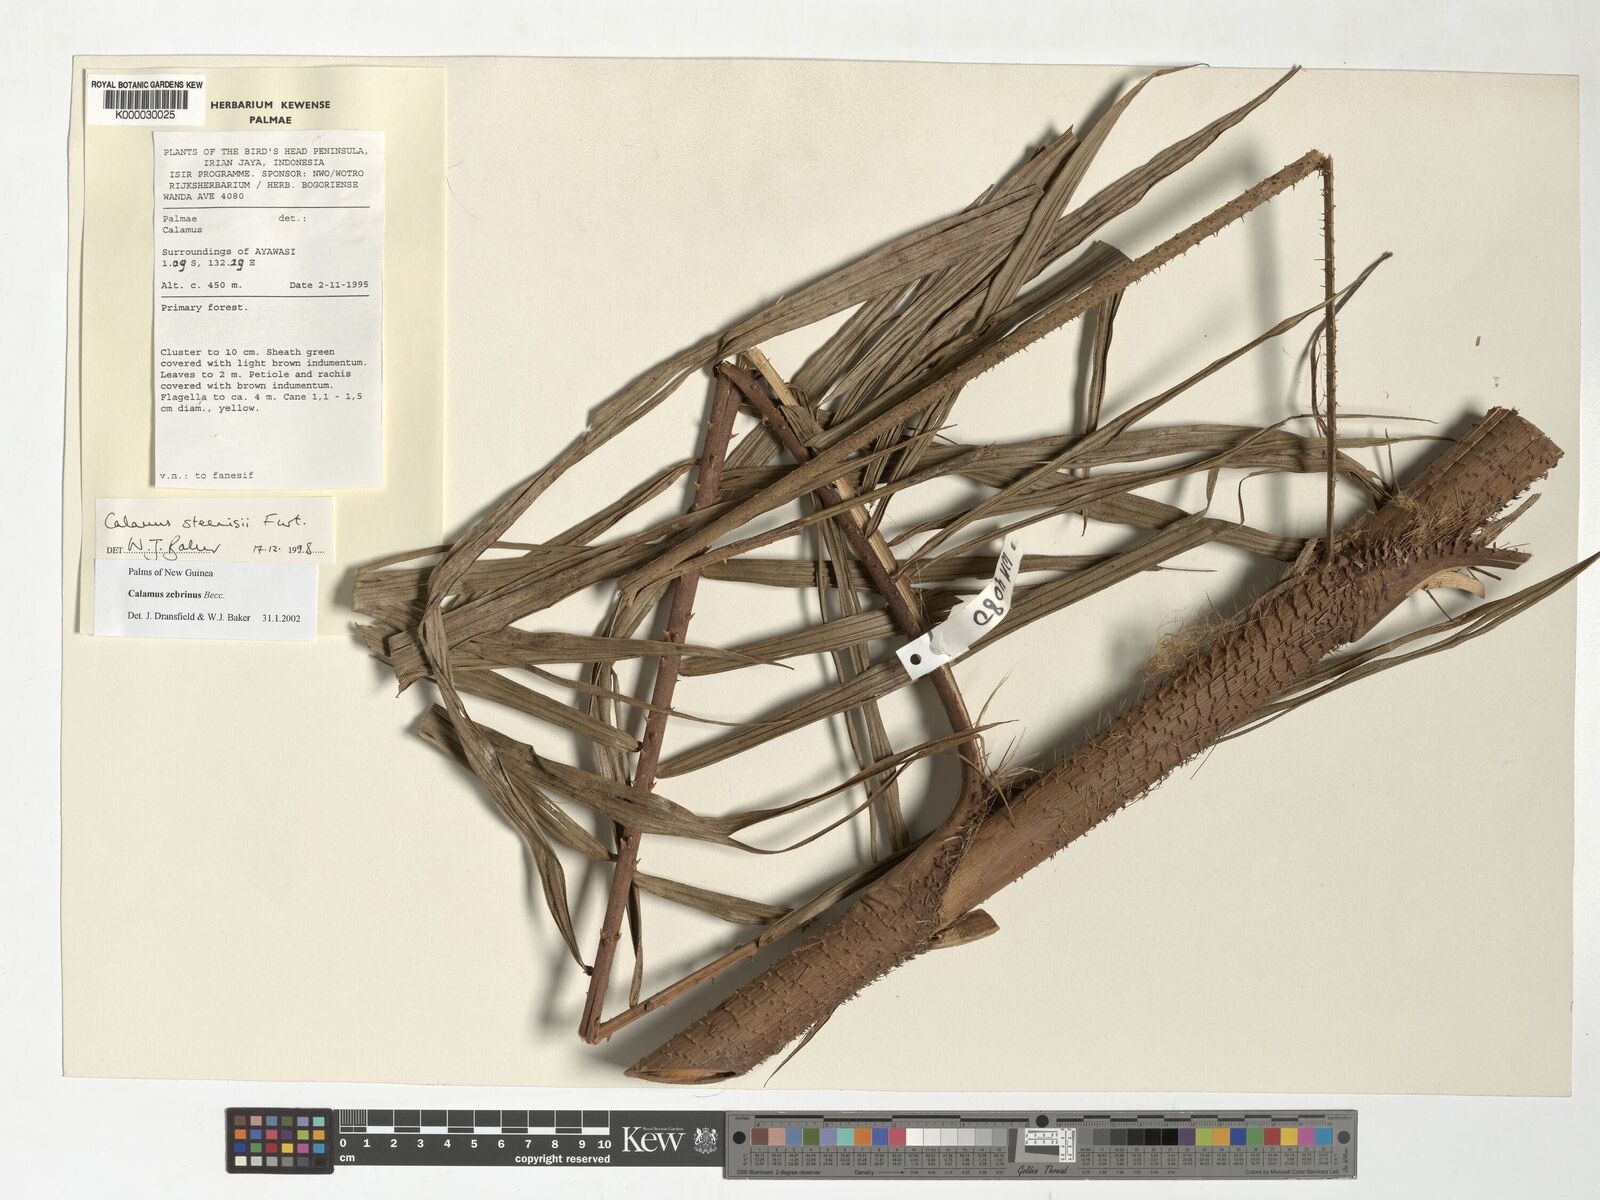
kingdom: Plantae
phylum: Tracheophyta
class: Liliopsida
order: Arecales
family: Arecaceae
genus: Calamus
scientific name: Calamus zebrinus
